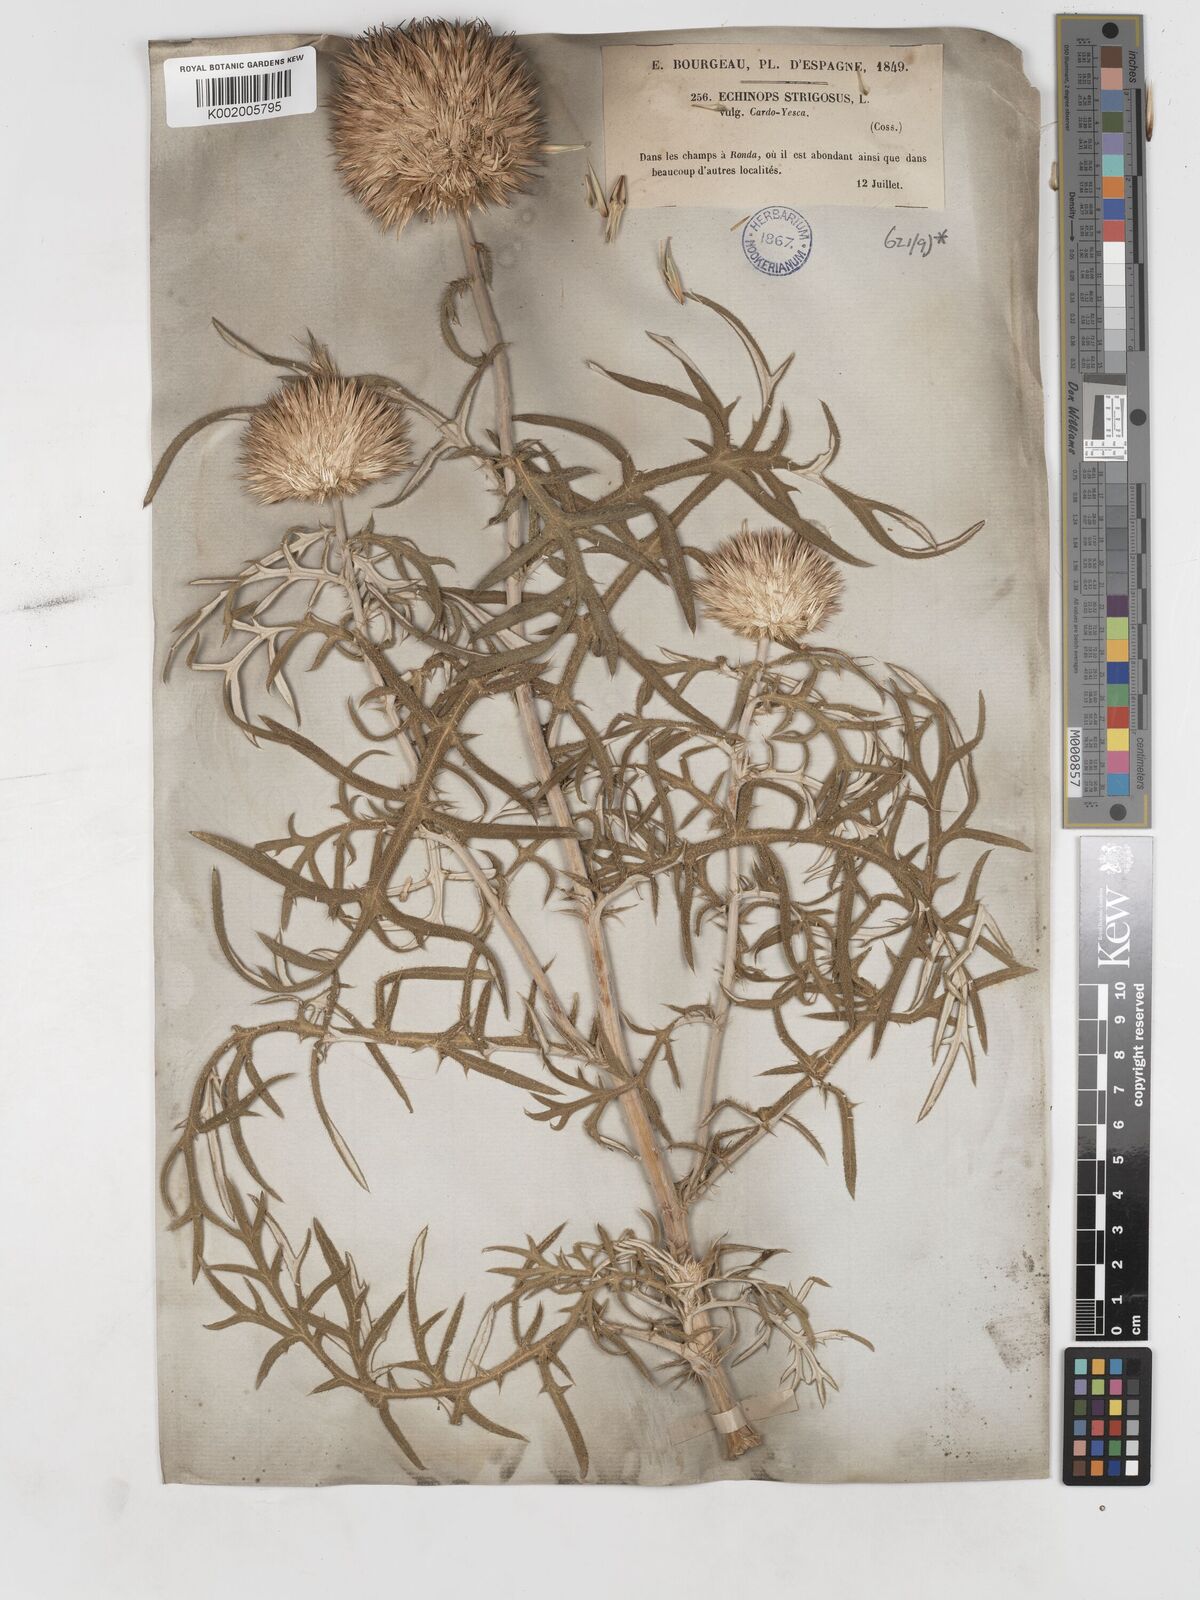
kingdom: Plantae
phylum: Tracheophyta
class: Magnoliopsida
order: Asterales
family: Asteraceae
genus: Echinops
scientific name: Echinops strigosus
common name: Rough-leaf globe thistle
